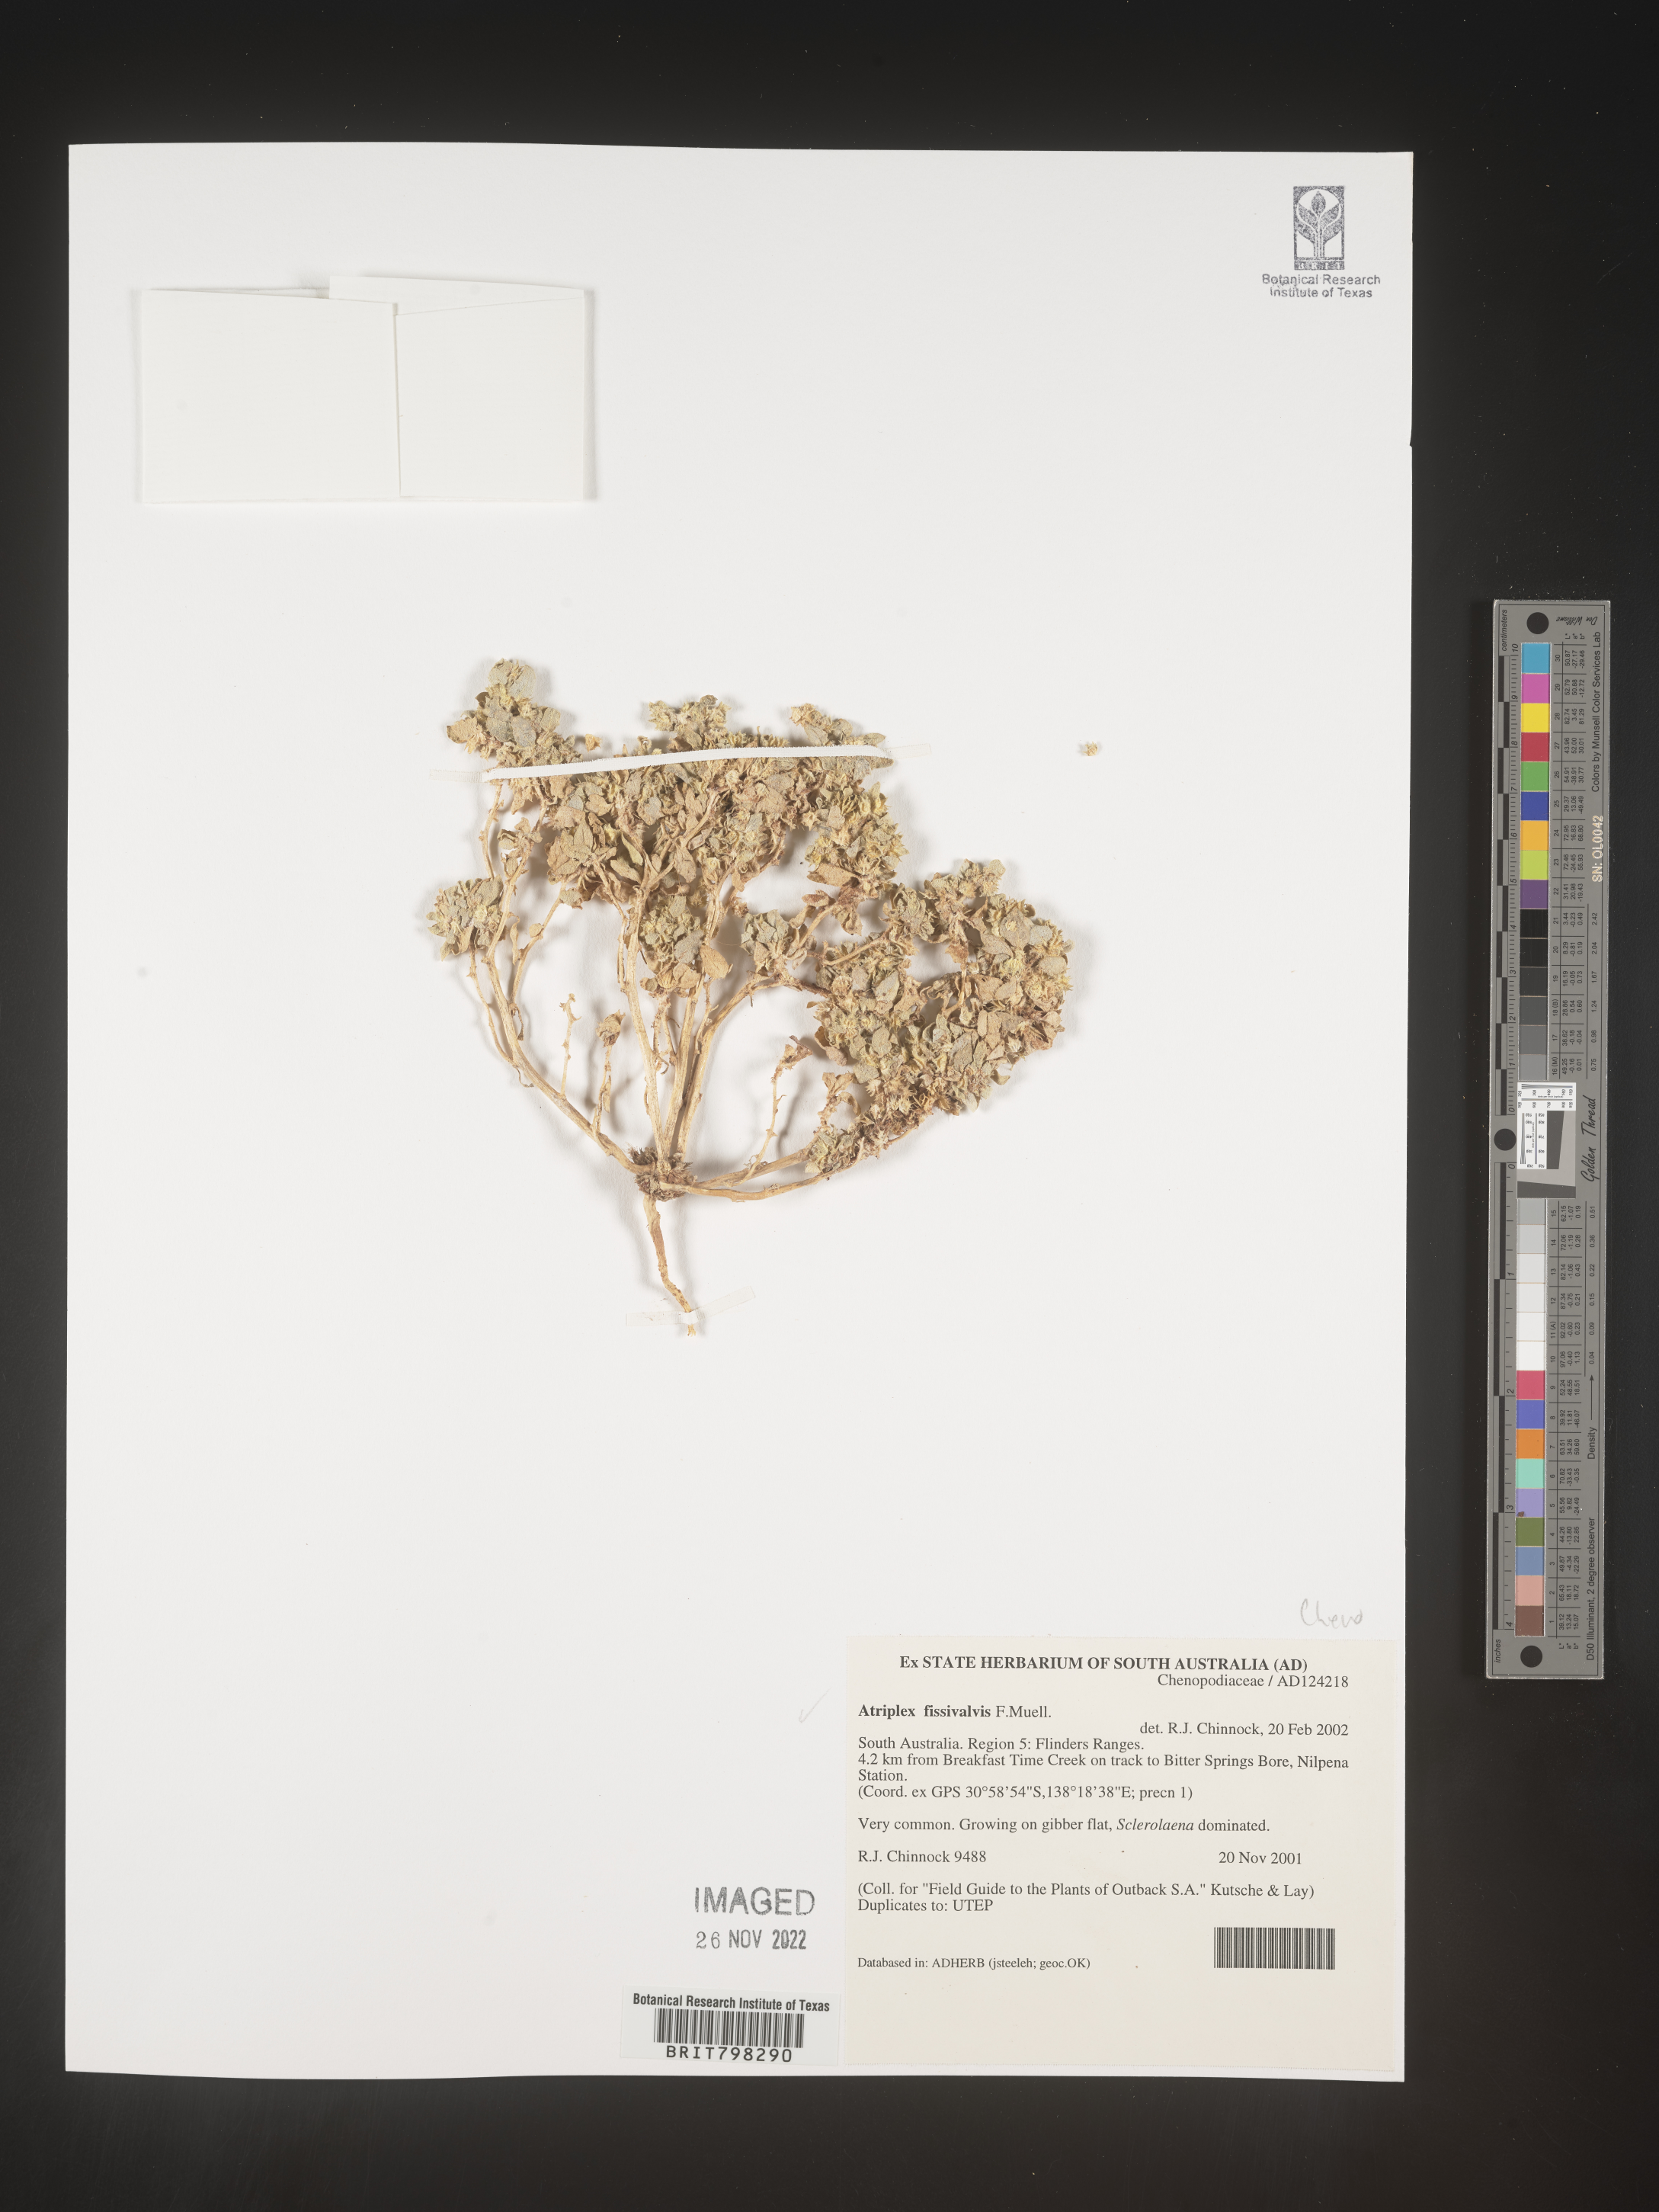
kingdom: Plantae
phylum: Tracheophyta
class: Magnoliopsida
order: Caryophyllales
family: Amaranthaceae
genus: Atriplex
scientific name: Atriplex
